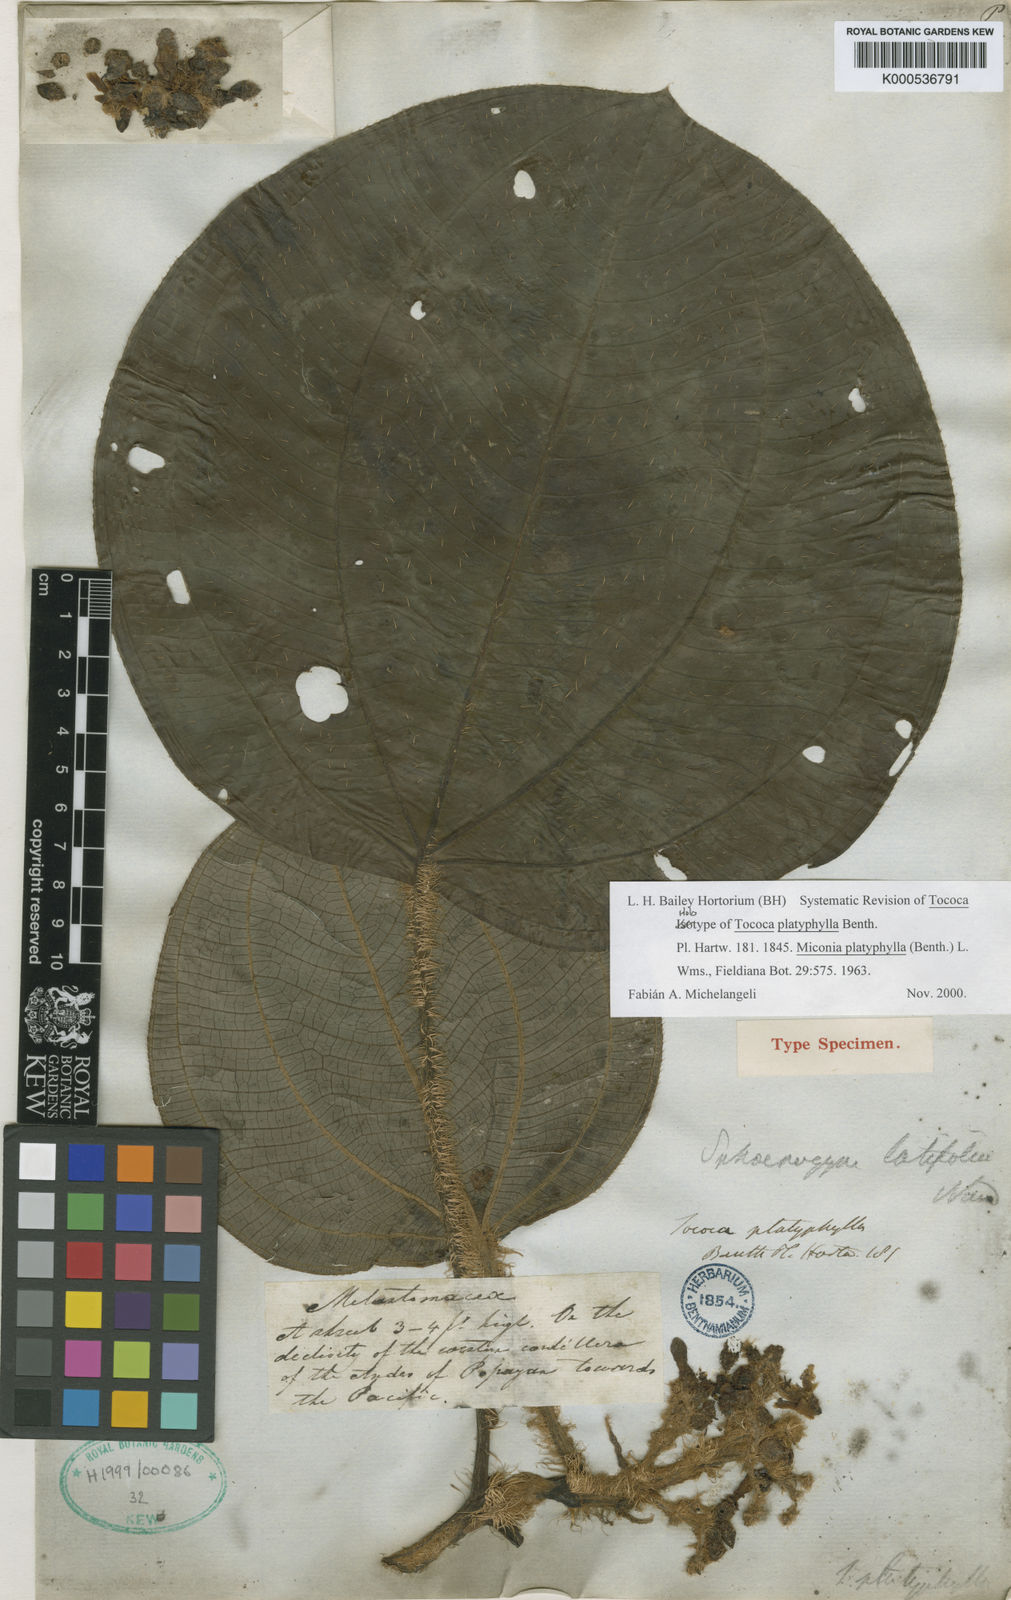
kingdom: Plantae
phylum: Tracheophyta
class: Magnoliopsida
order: Myrtales
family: Melastomataceae
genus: Miconia
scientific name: Miconia platyphylla
